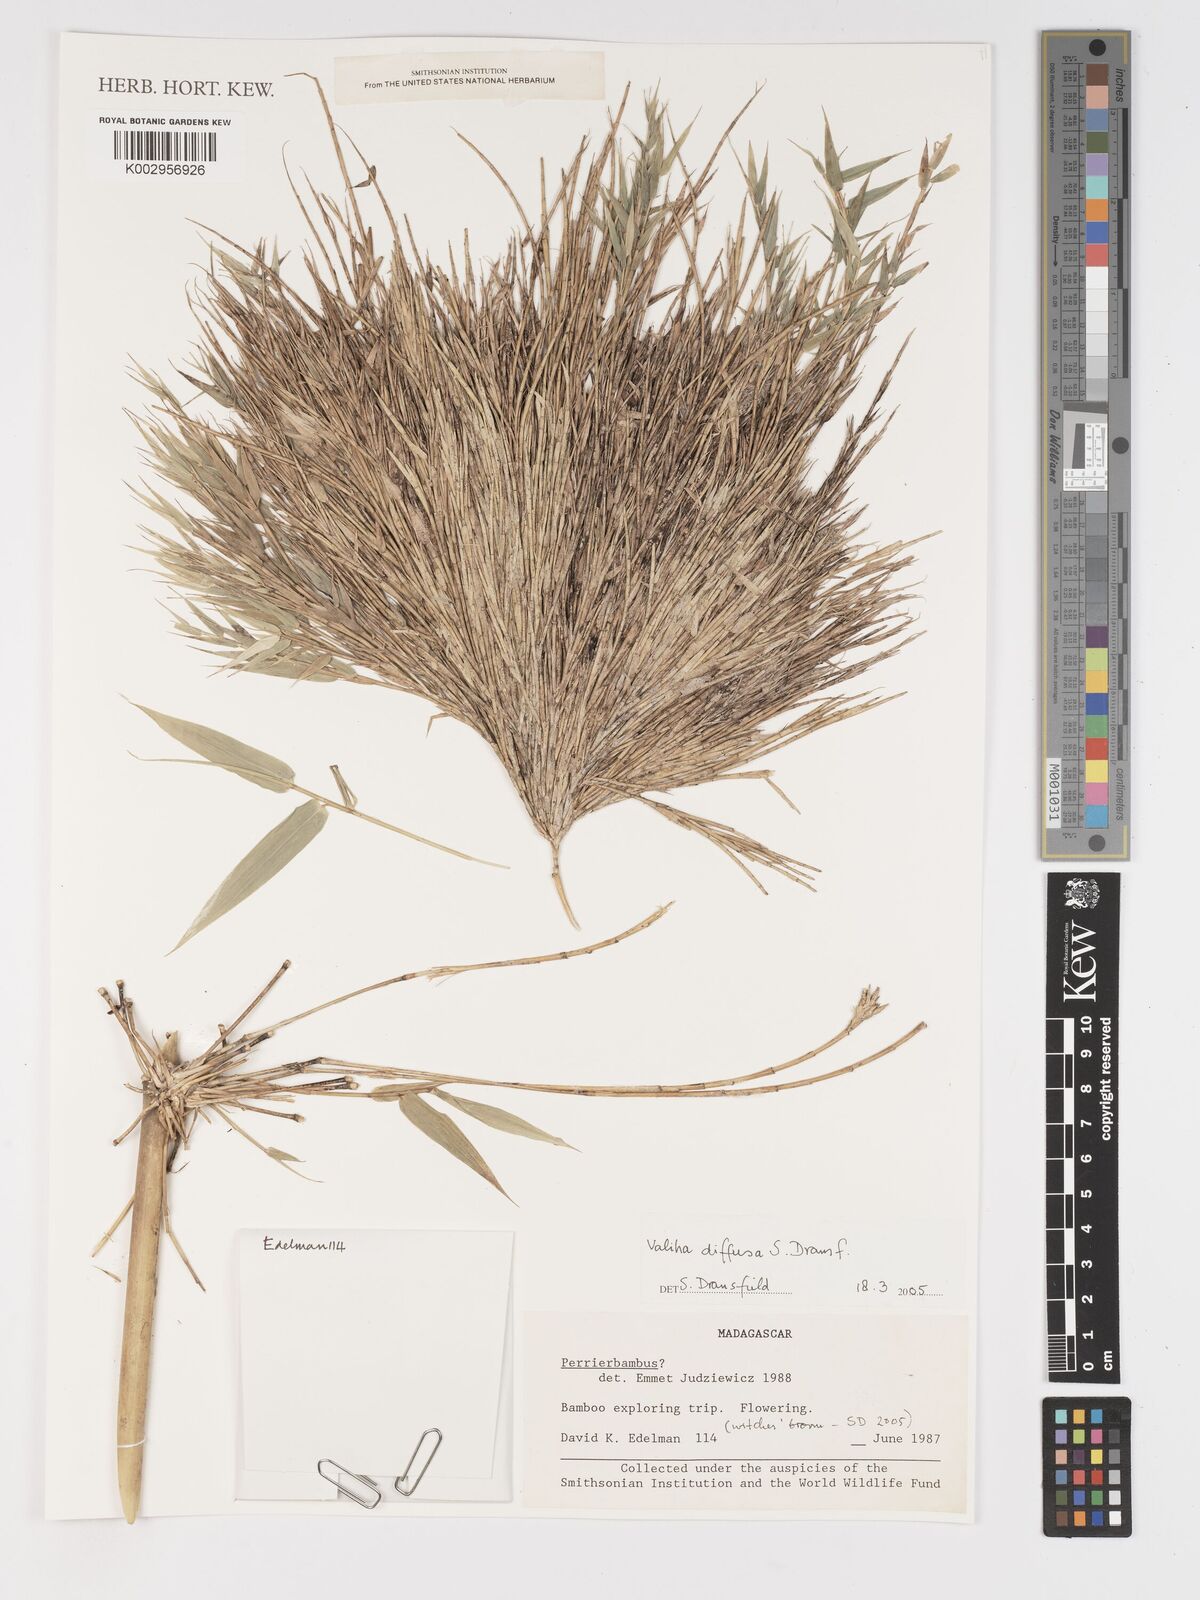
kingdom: Plantae
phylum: Tracheophyta
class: Liliopsida
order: Poales
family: Poaceae
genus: Valiha
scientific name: Valiha
